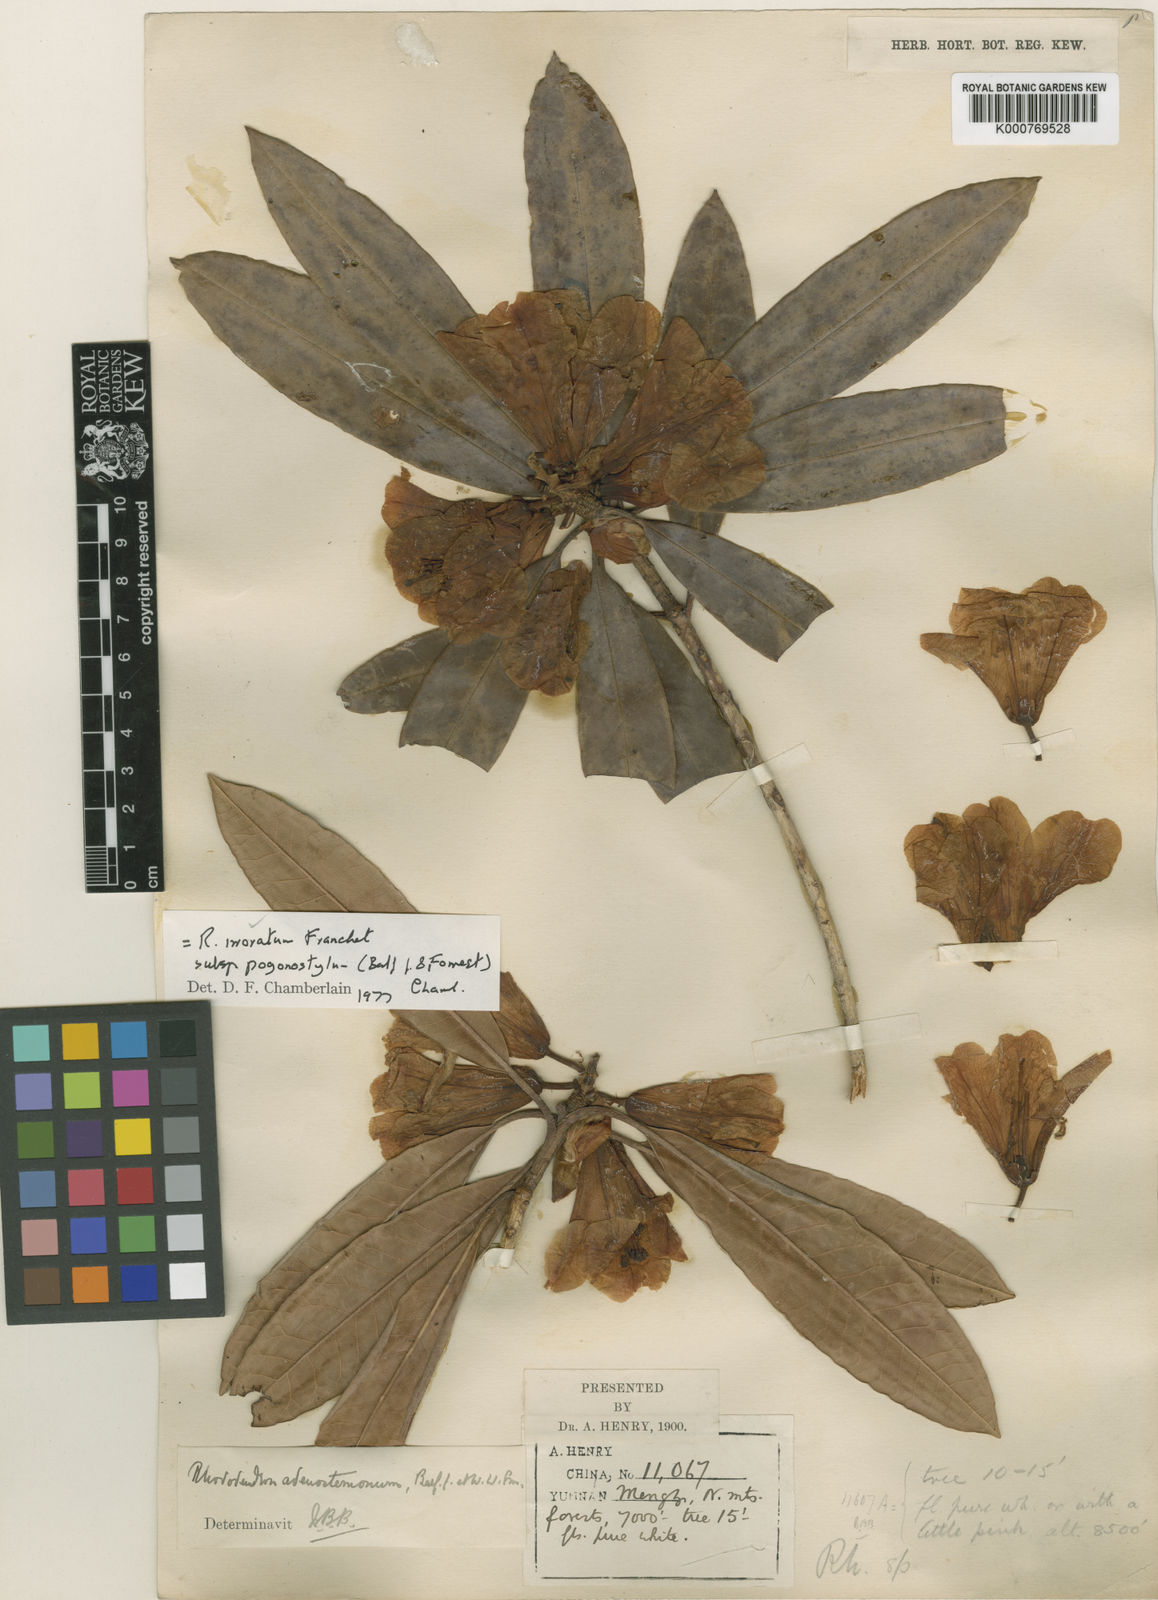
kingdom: Plantae
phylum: Tracheophyta
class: Magnoliopsida
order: Ericales
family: Ericaceae
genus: Rhododendron
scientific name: Rhododendron irroratum
